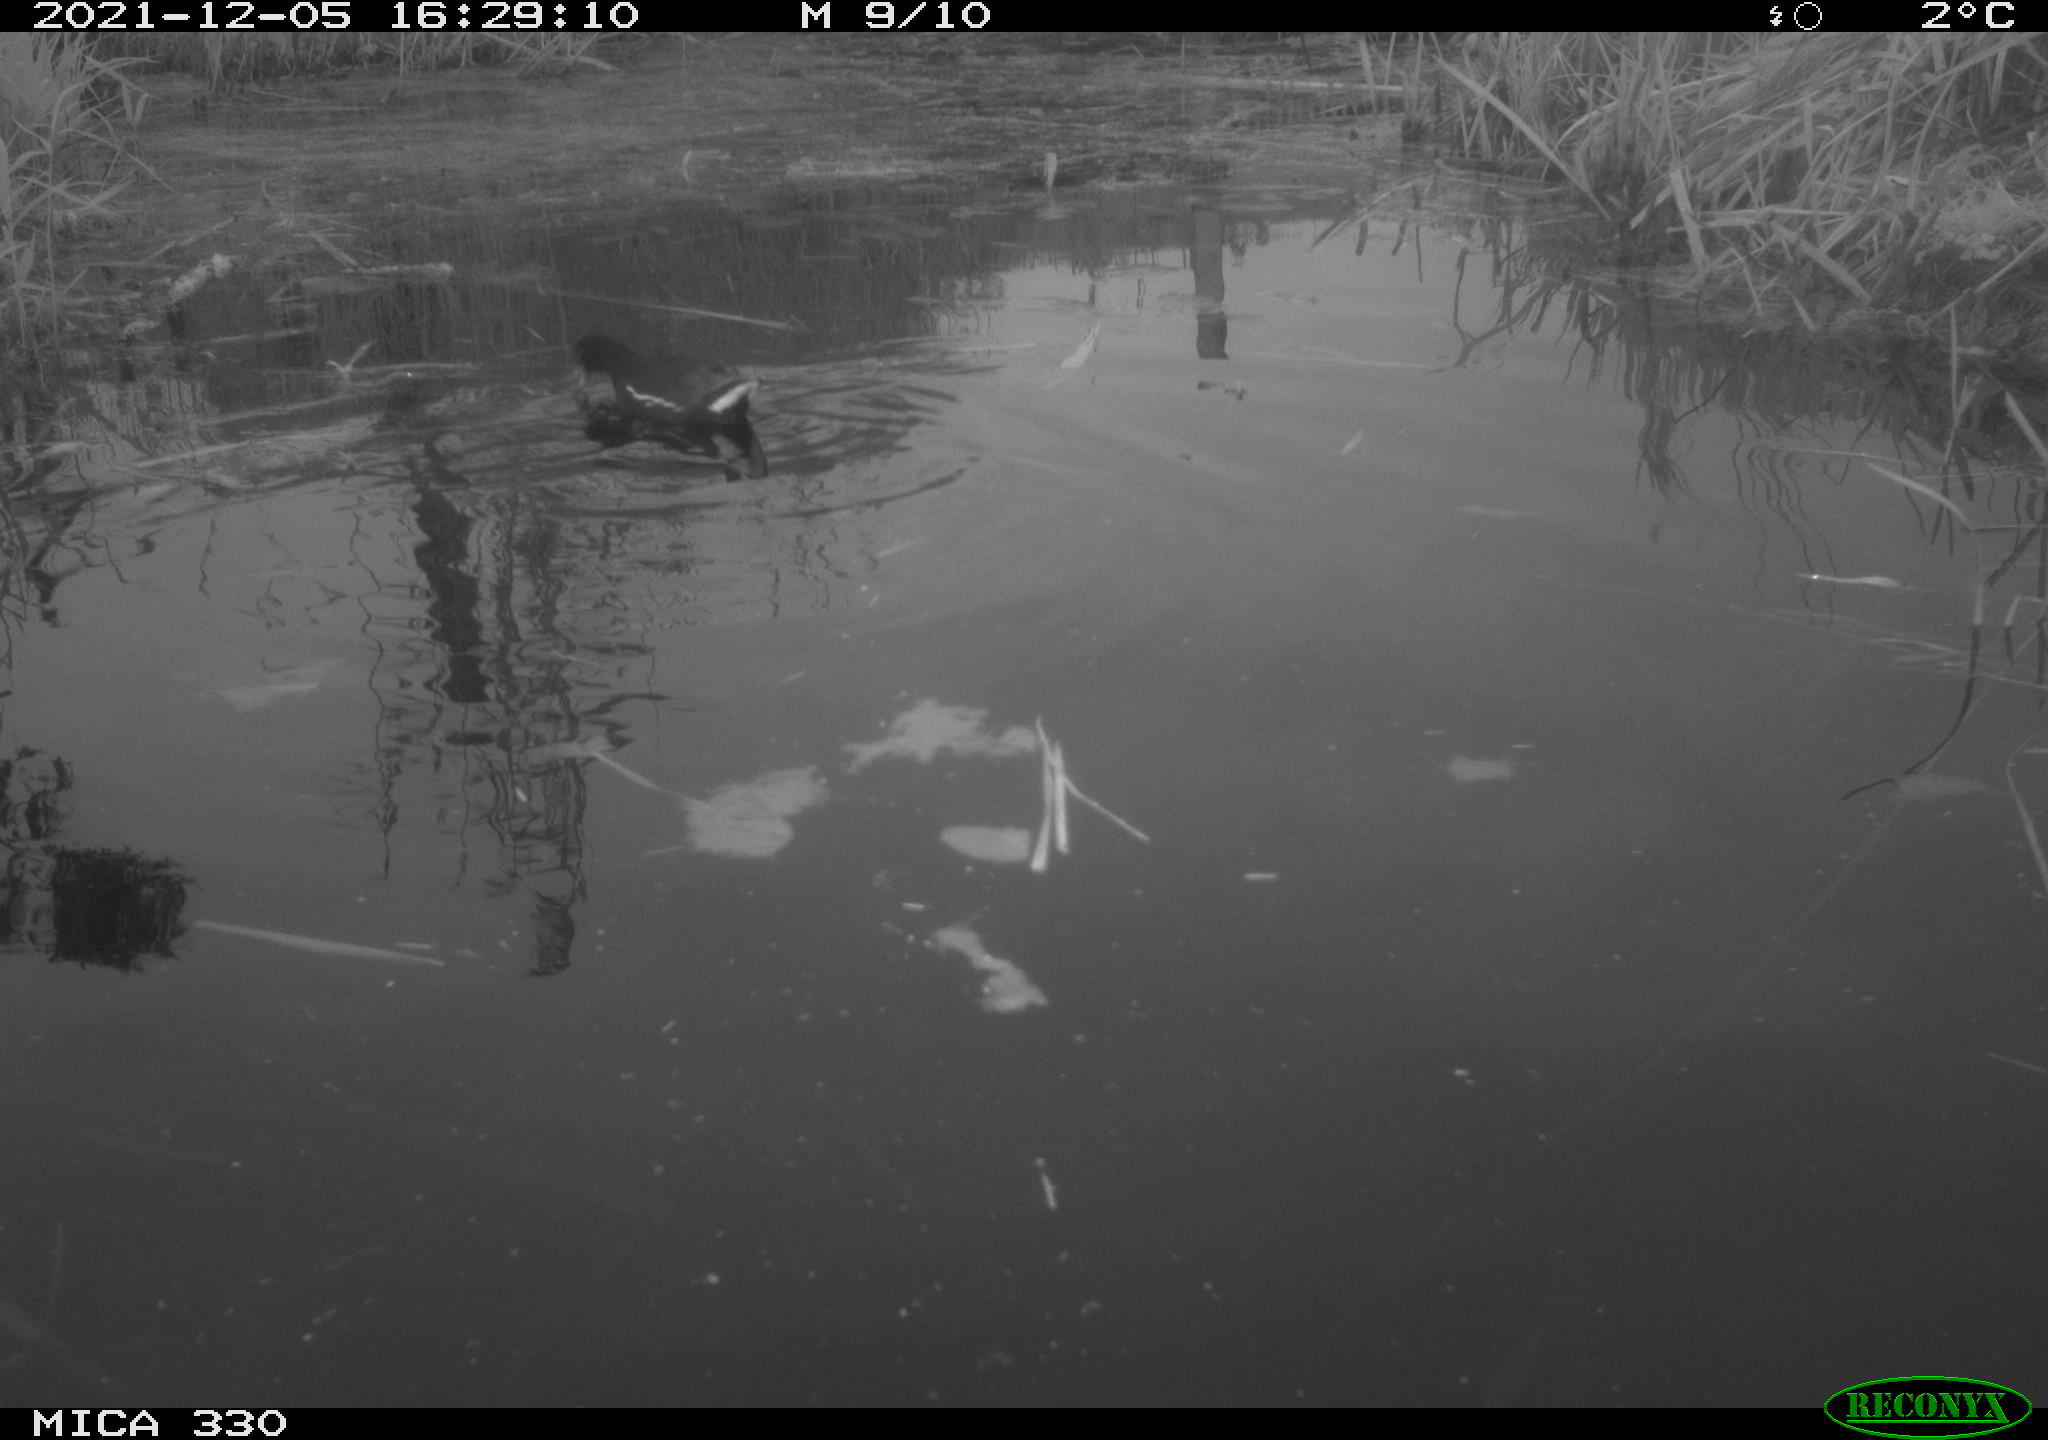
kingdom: Animalia
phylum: Chordata
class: Aves
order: Gruiformes
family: Rallidae
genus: Gallinula
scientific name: Gallinula chloropus
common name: Common moorhen
